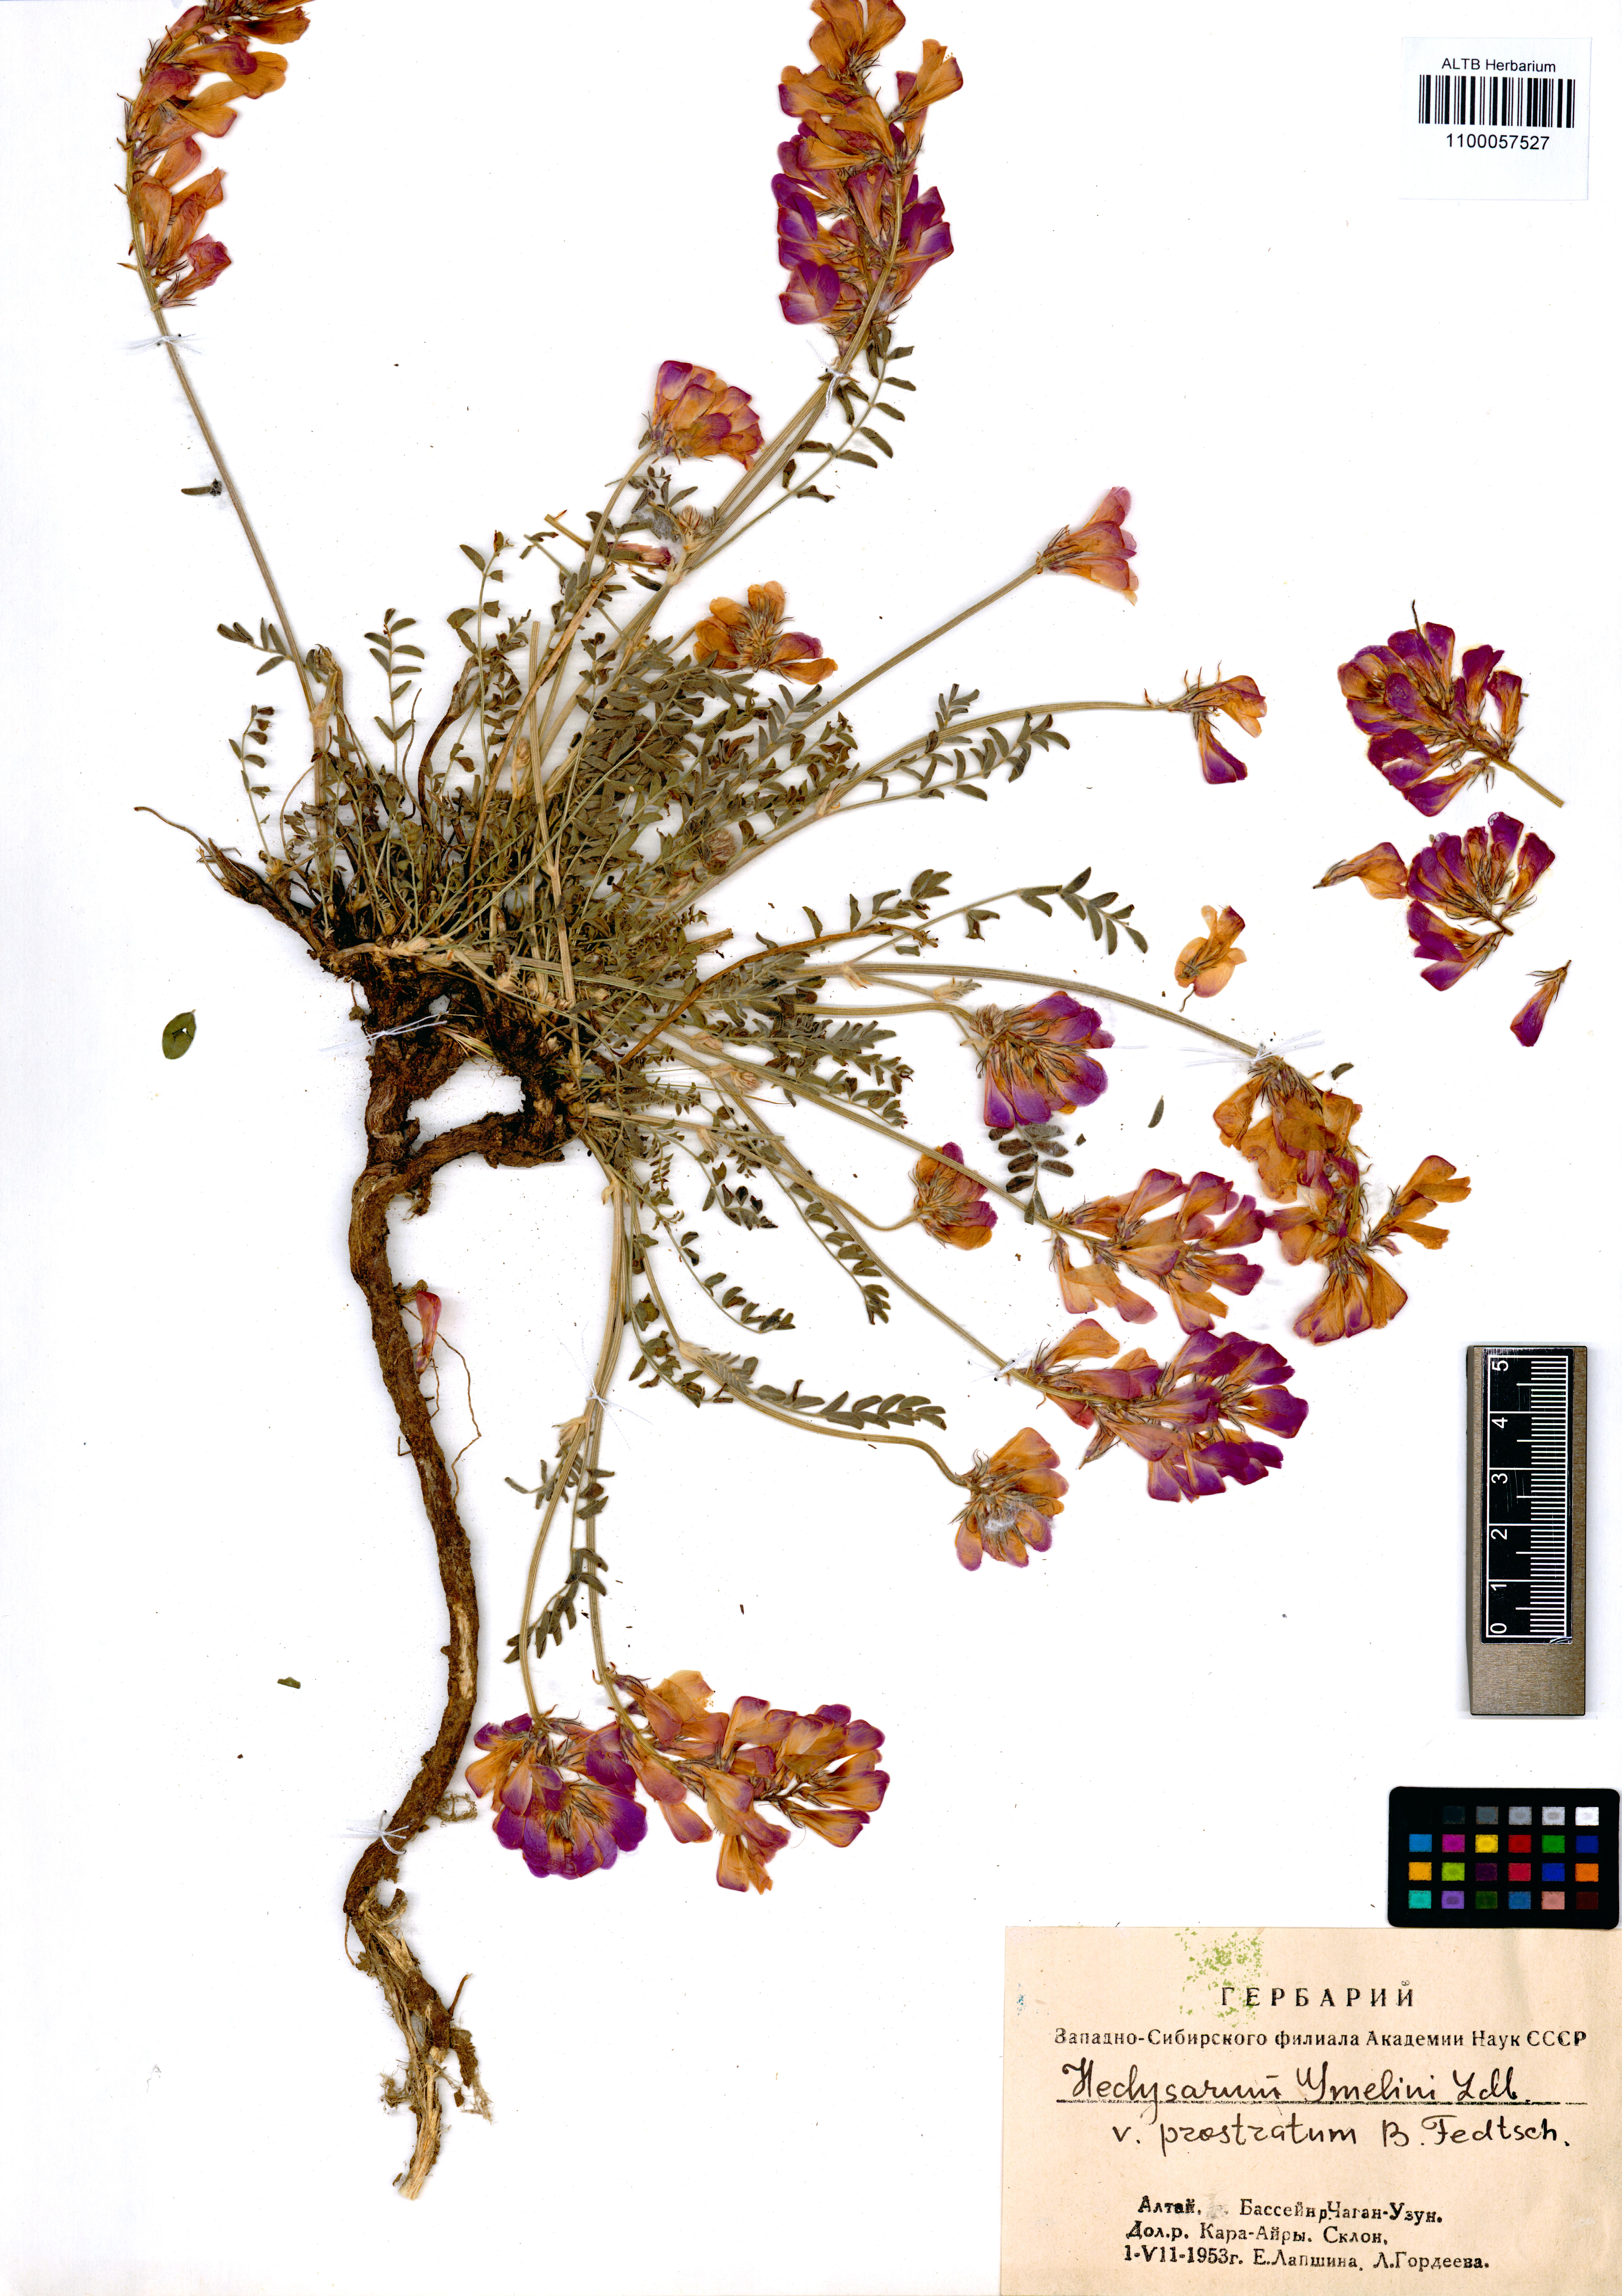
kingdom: Plantae
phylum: Tracheophyta
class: Magnoliopsida
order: Fabales
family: Fabaceae
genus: Hedysarum
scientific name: Hedysarum gmelinii
